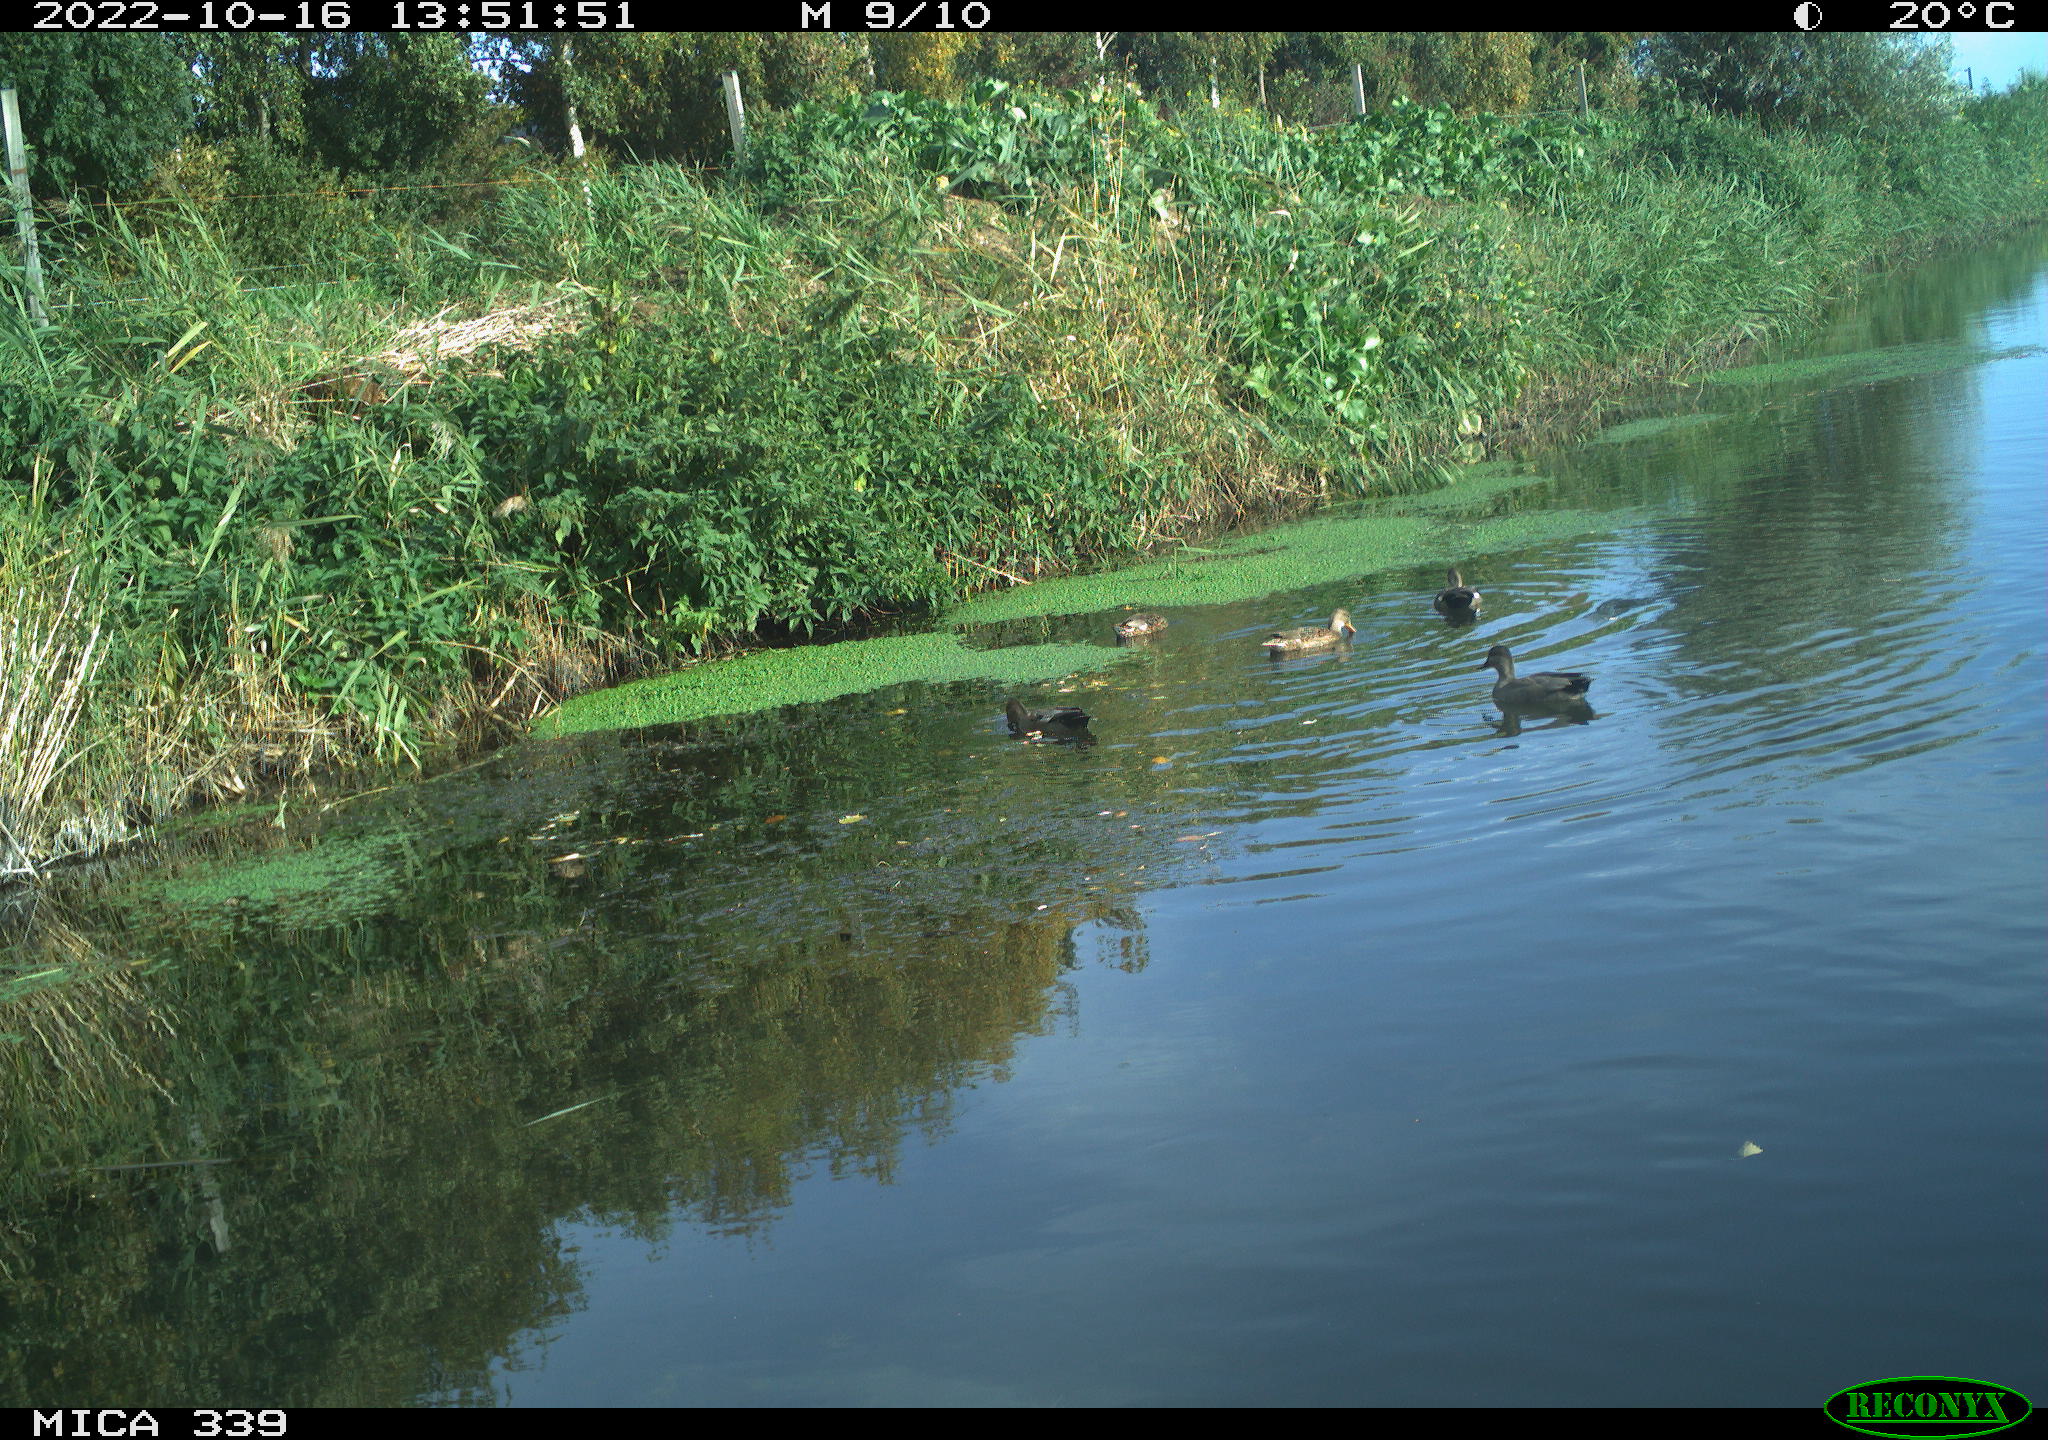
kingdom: Animalia
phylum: Chordata
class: Aves
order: Anseriformes
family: Anatidae
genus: Mareca
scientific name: Mareca strepera
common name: Gadwall
